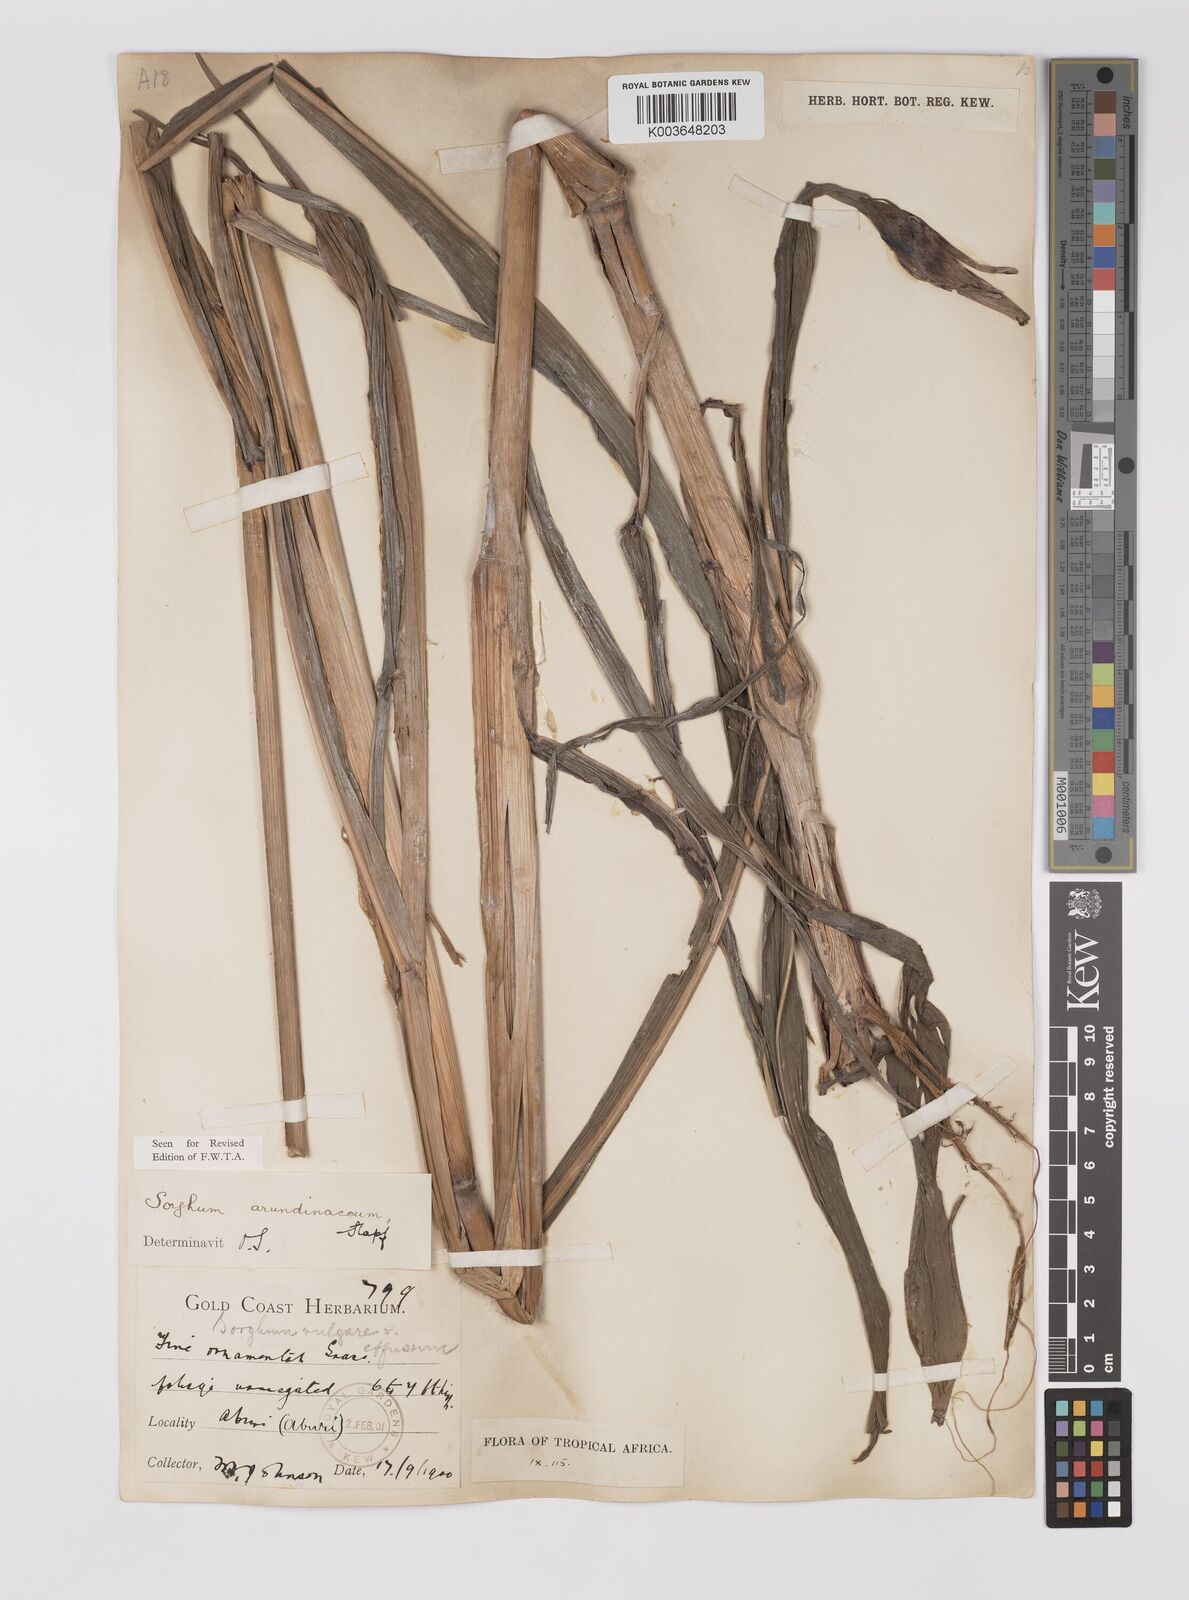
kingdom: Plantae
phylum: Tracheophyta
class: Liliopsida
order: Poales
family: Poaceae
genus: Sorghum
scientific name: Sorghum arundinaceum
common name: Sorghum
